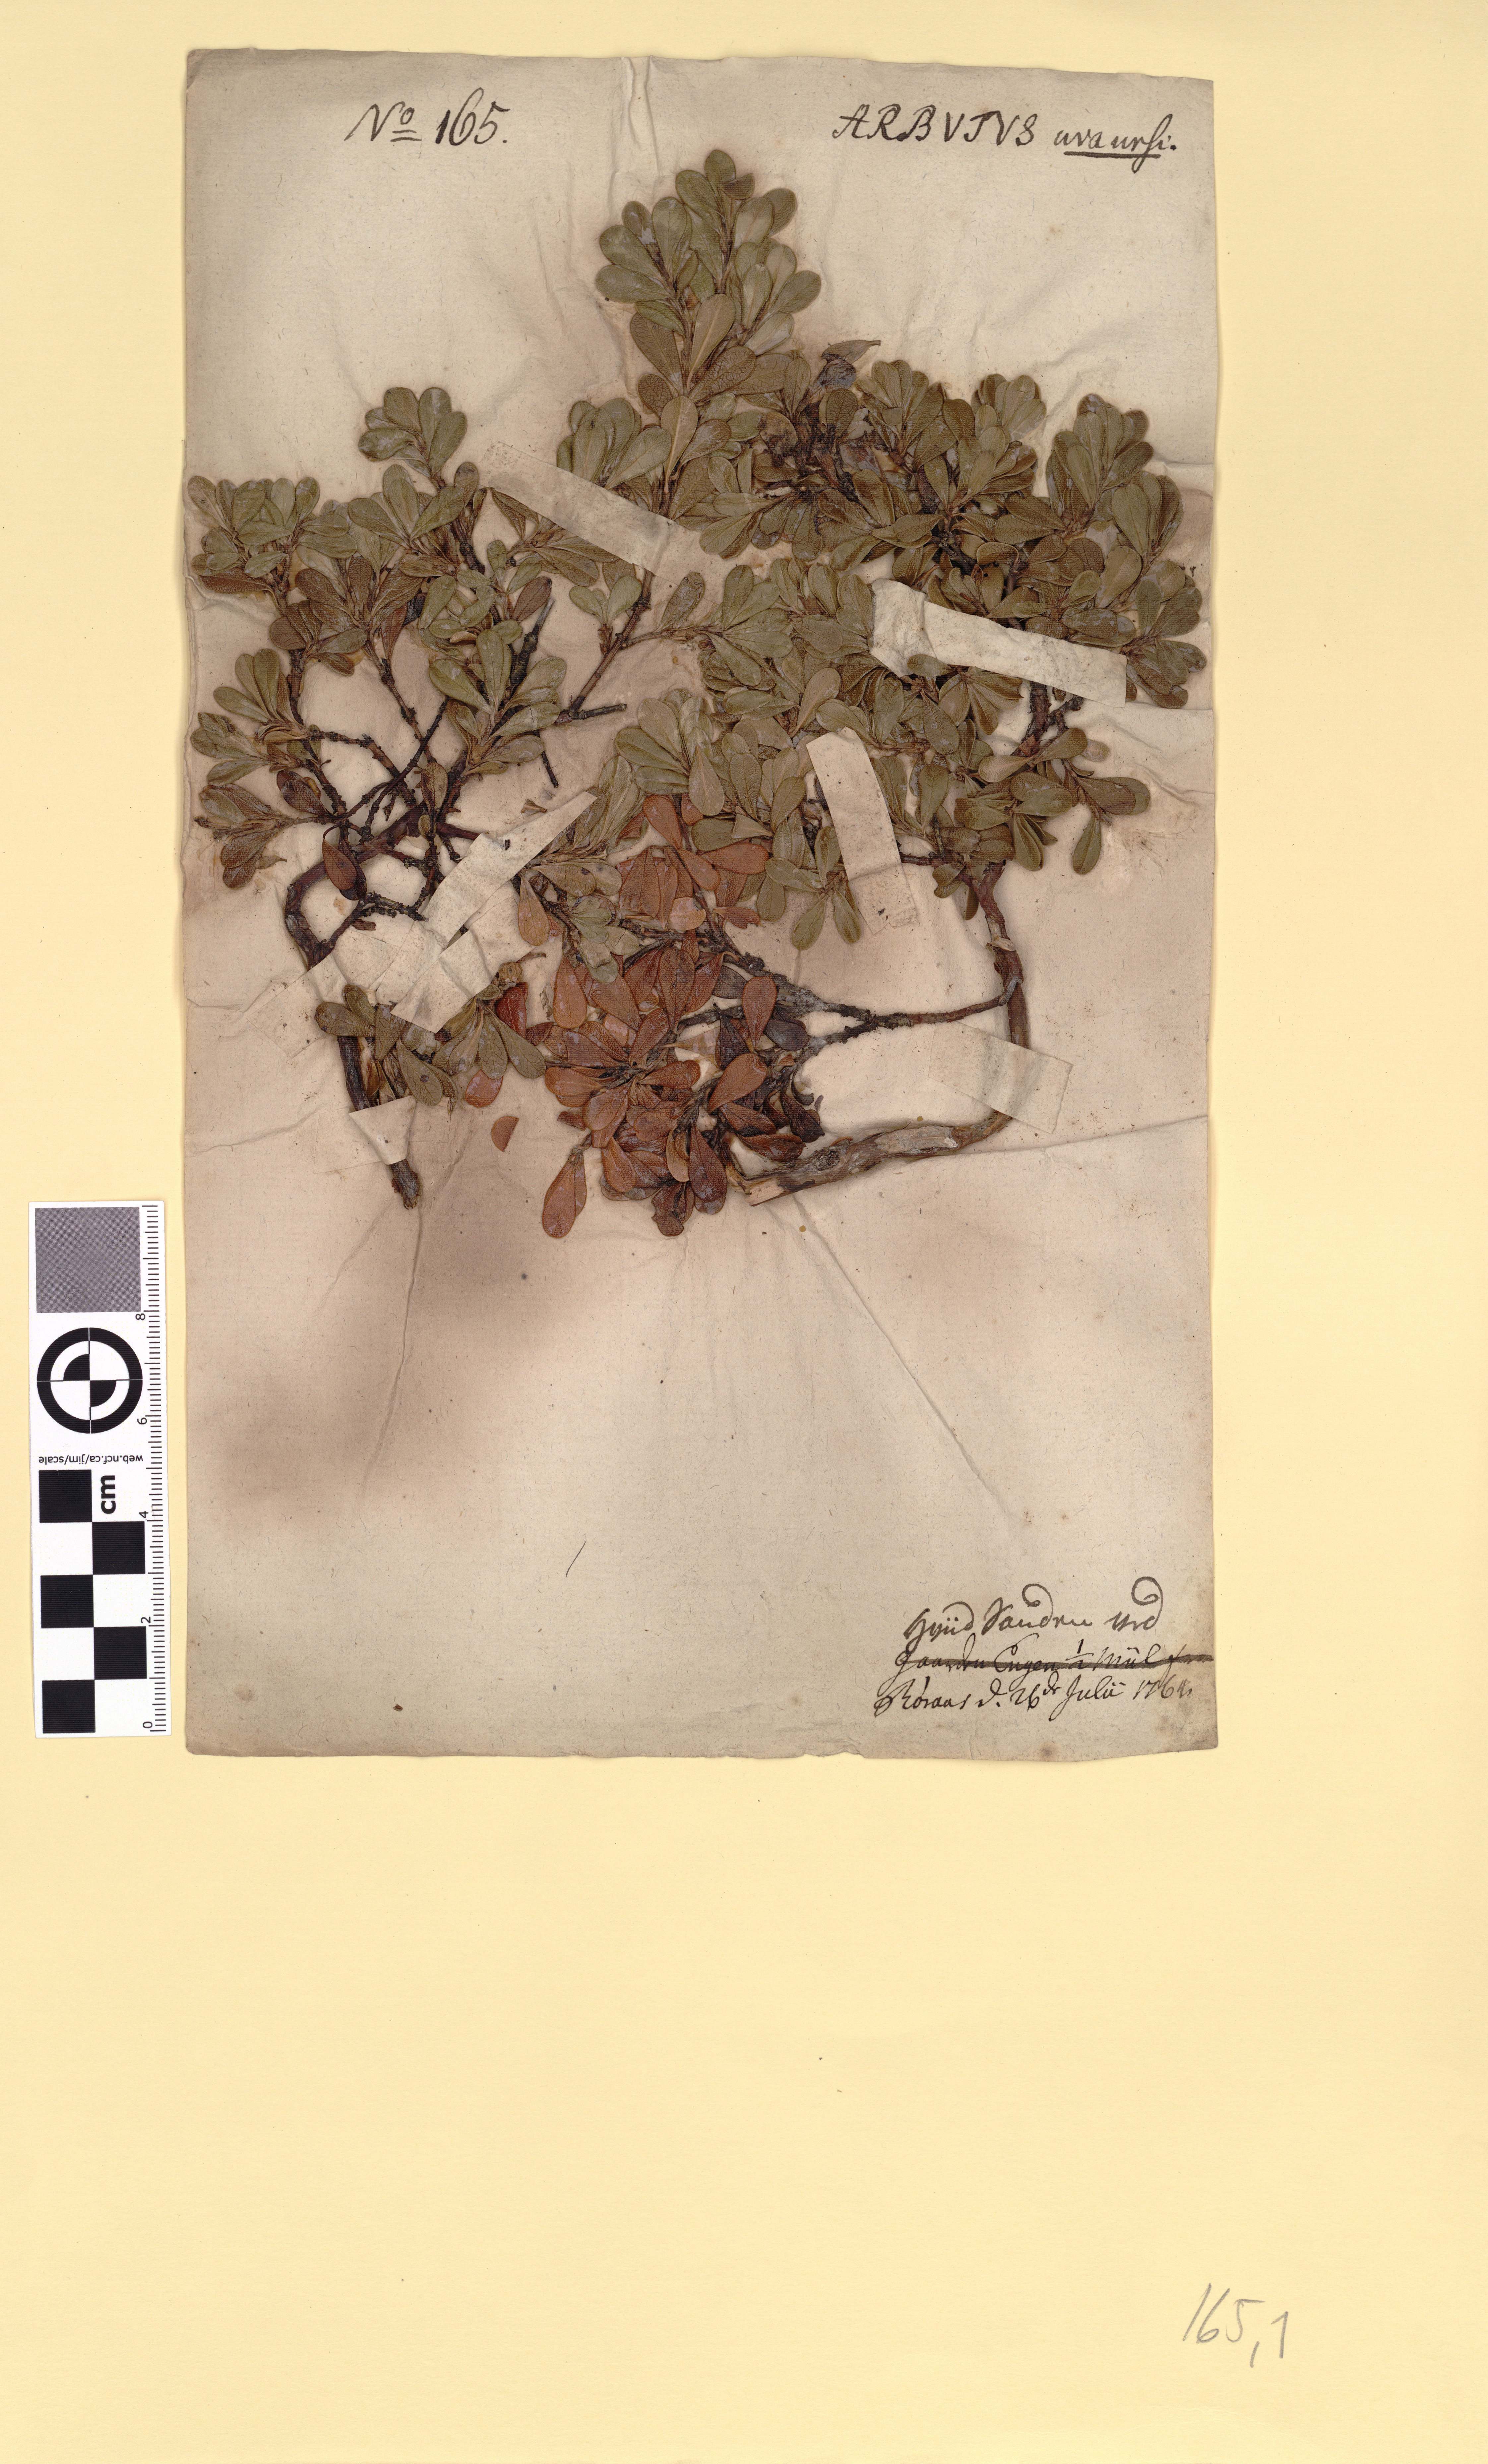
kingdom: Plantae
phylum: Tracheophyta
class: Magnoliopsida
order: Ericales
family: Ericaceae
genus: Arctostaphylos
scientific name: Arctostaphylos uva-ursi
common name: Bearberry
